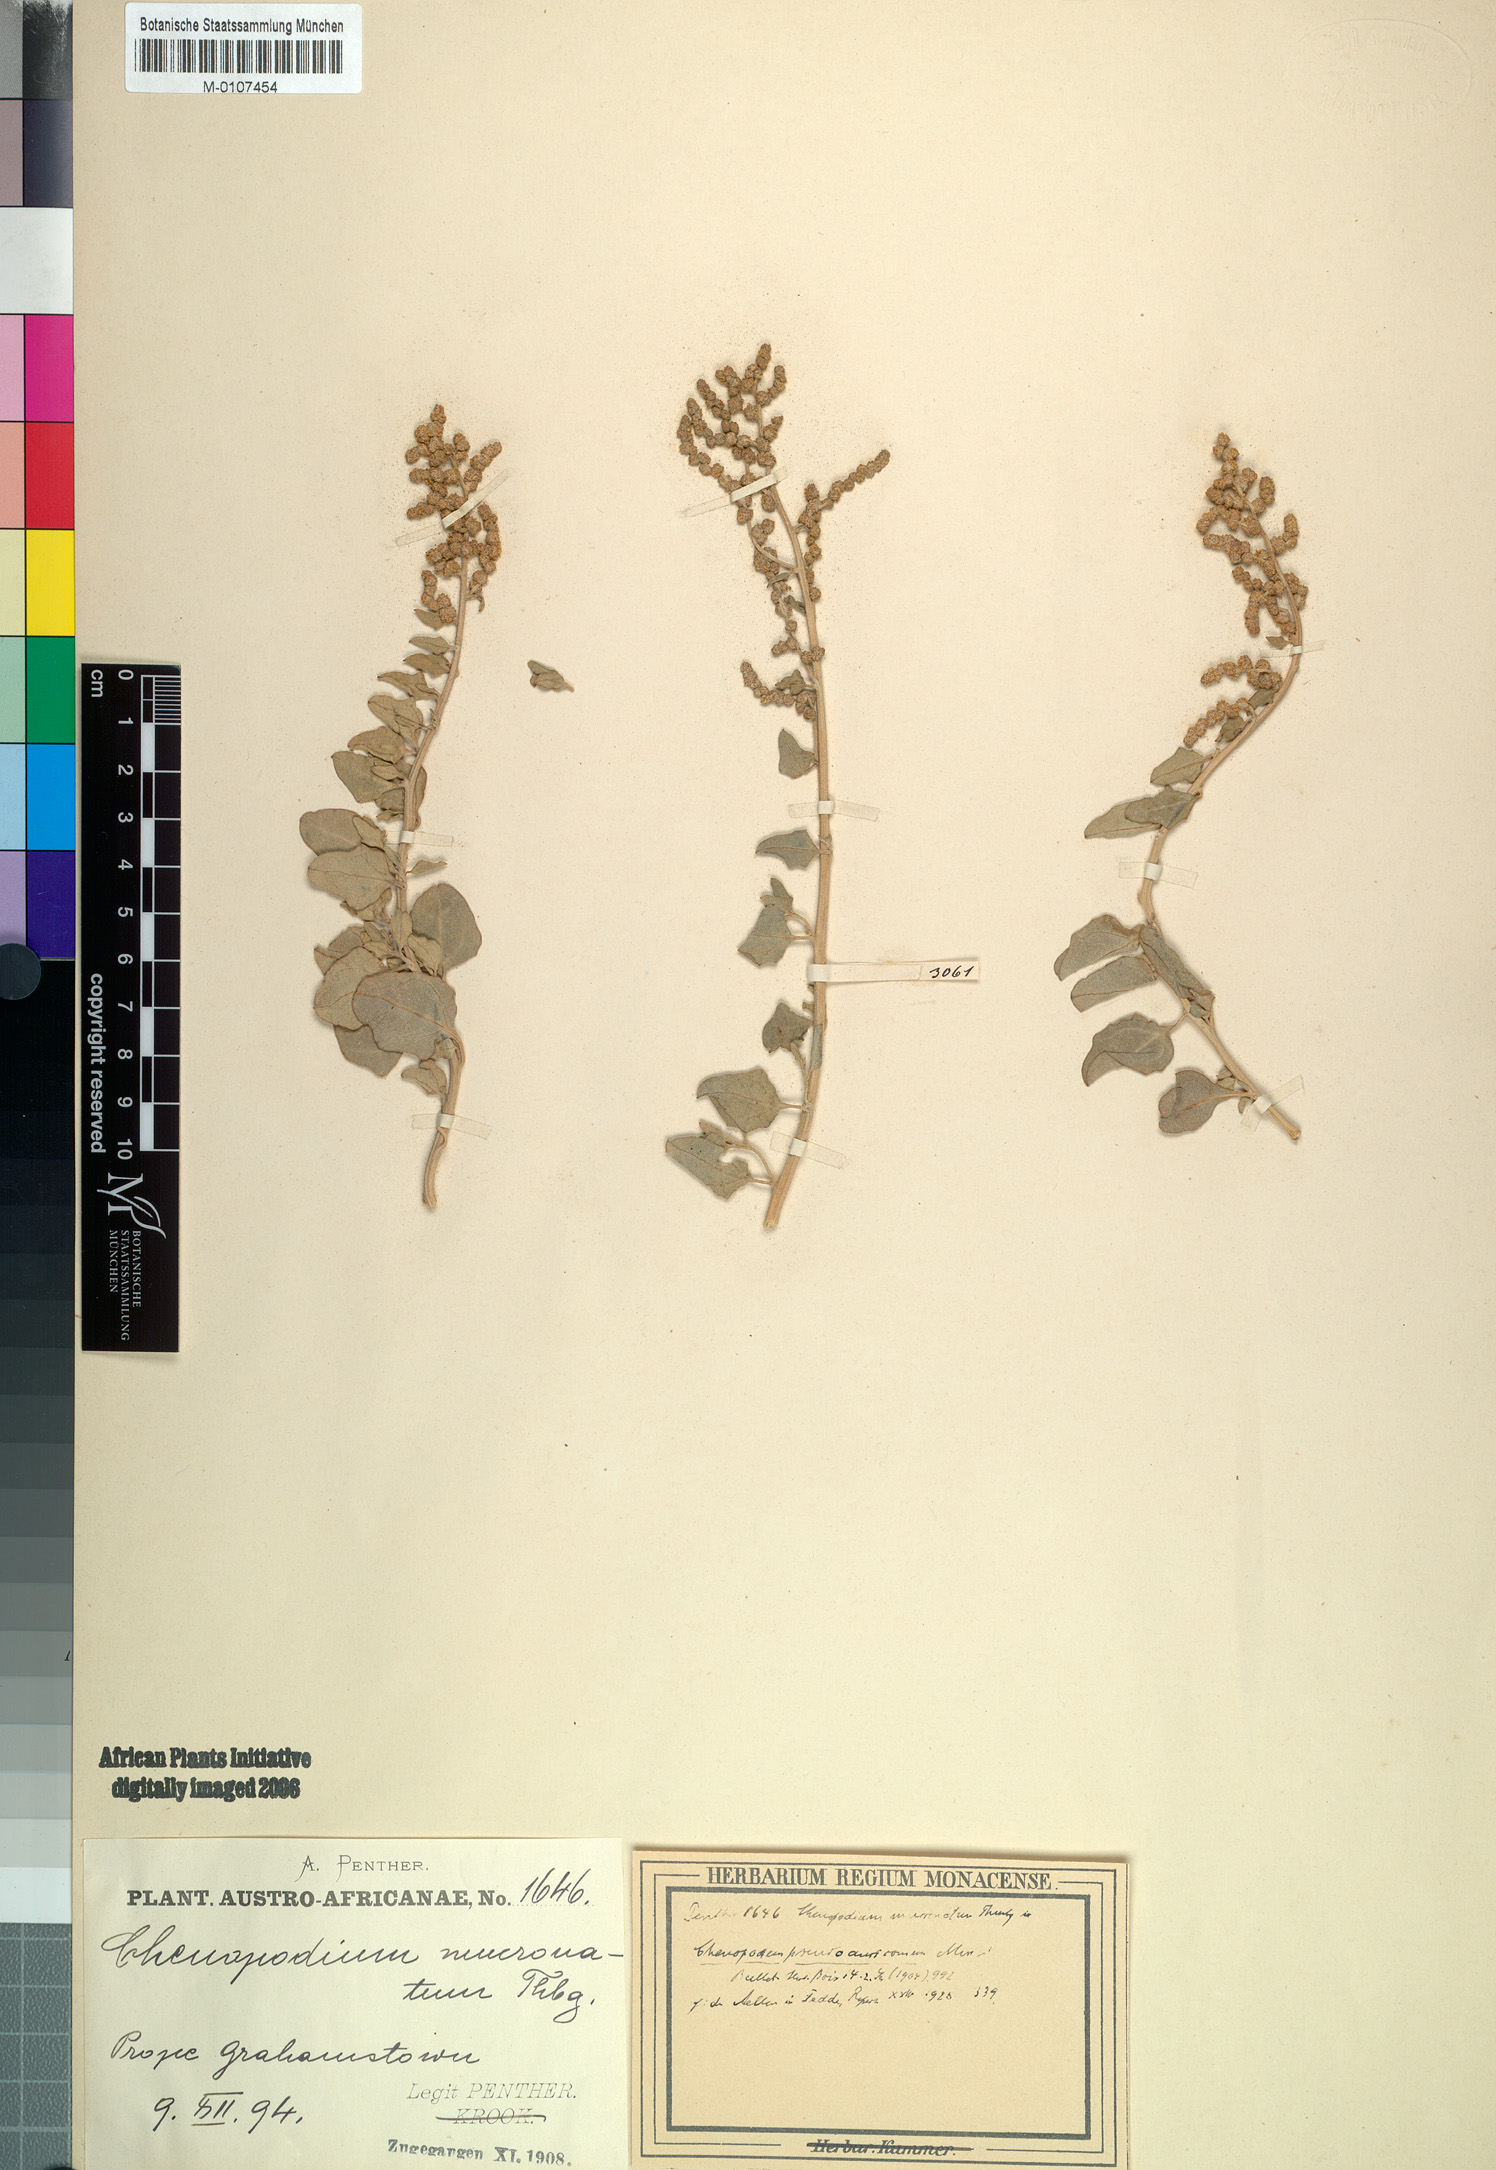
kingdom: Plantae
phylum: Tracheophyta
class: Magnoliopsida
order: Caryophyllales
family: Amaranthaceae
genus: Chenopodium
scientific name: Chenopodium
